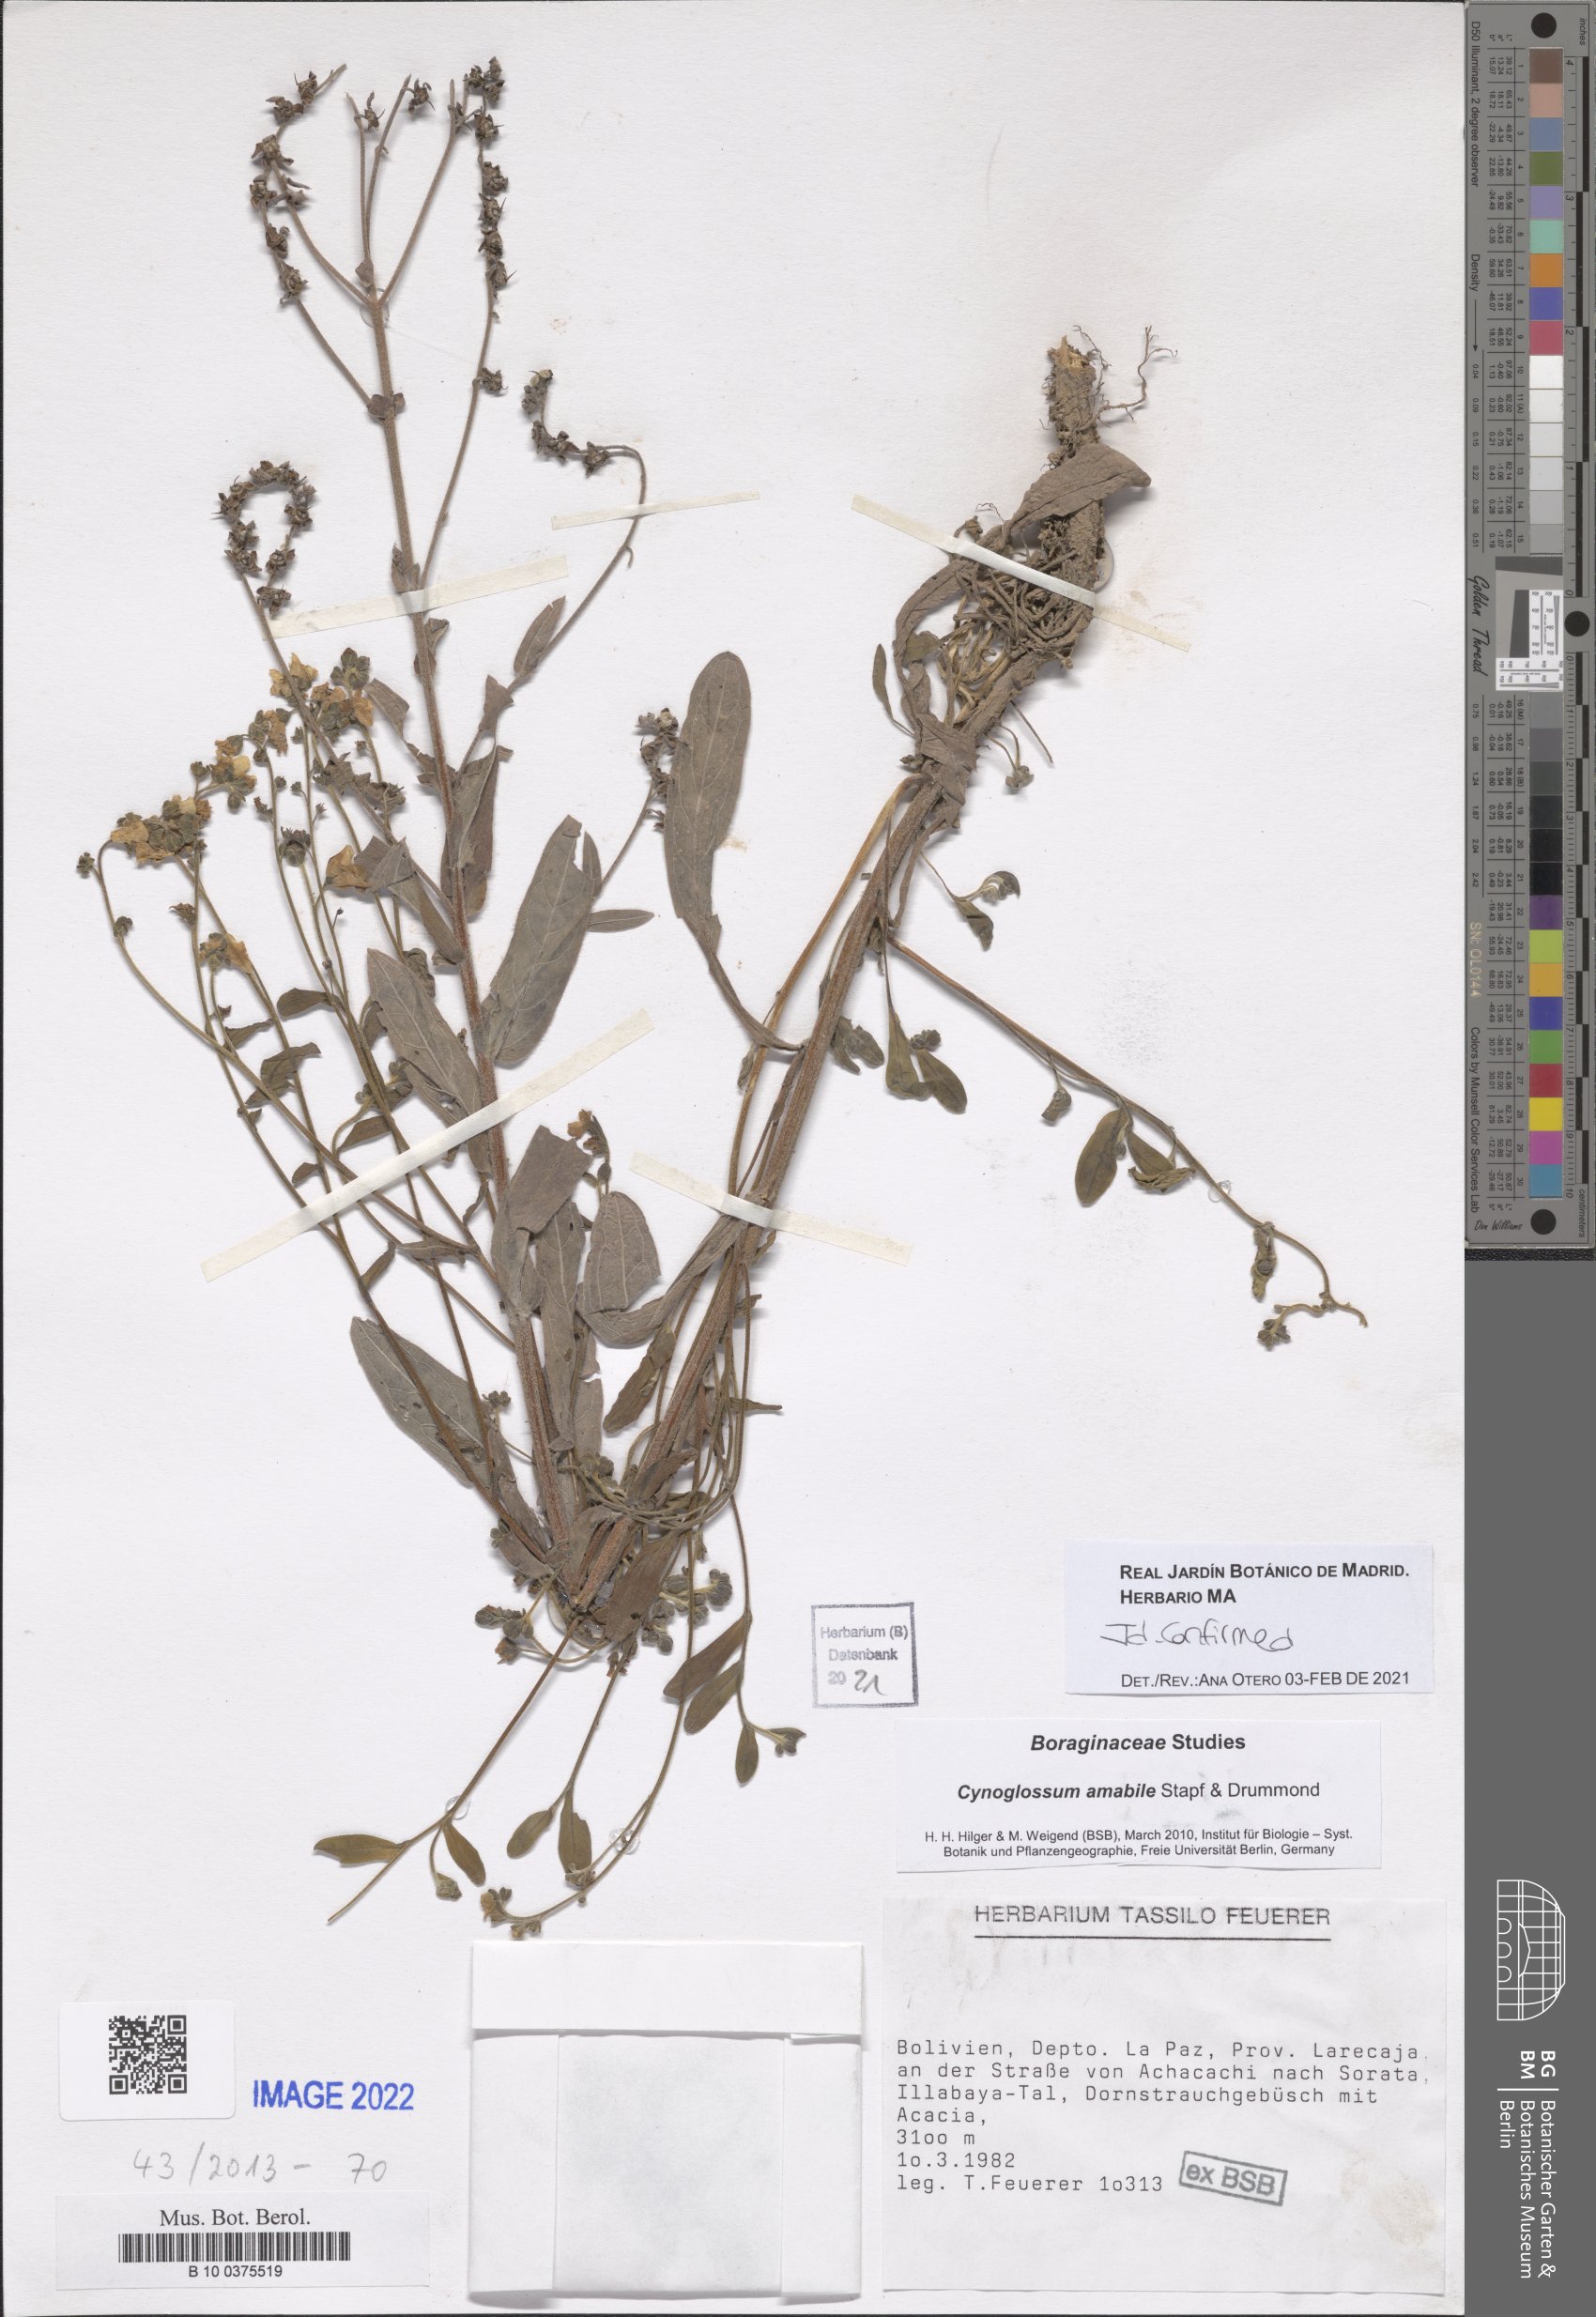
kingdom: Plantae
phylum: Tracheophyta
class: Magnoliopsida
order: Boraginales
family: Boraginaceae
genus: Cynoglossum
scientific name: Cynoglossum amabile
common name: Chinese hound's tongue
